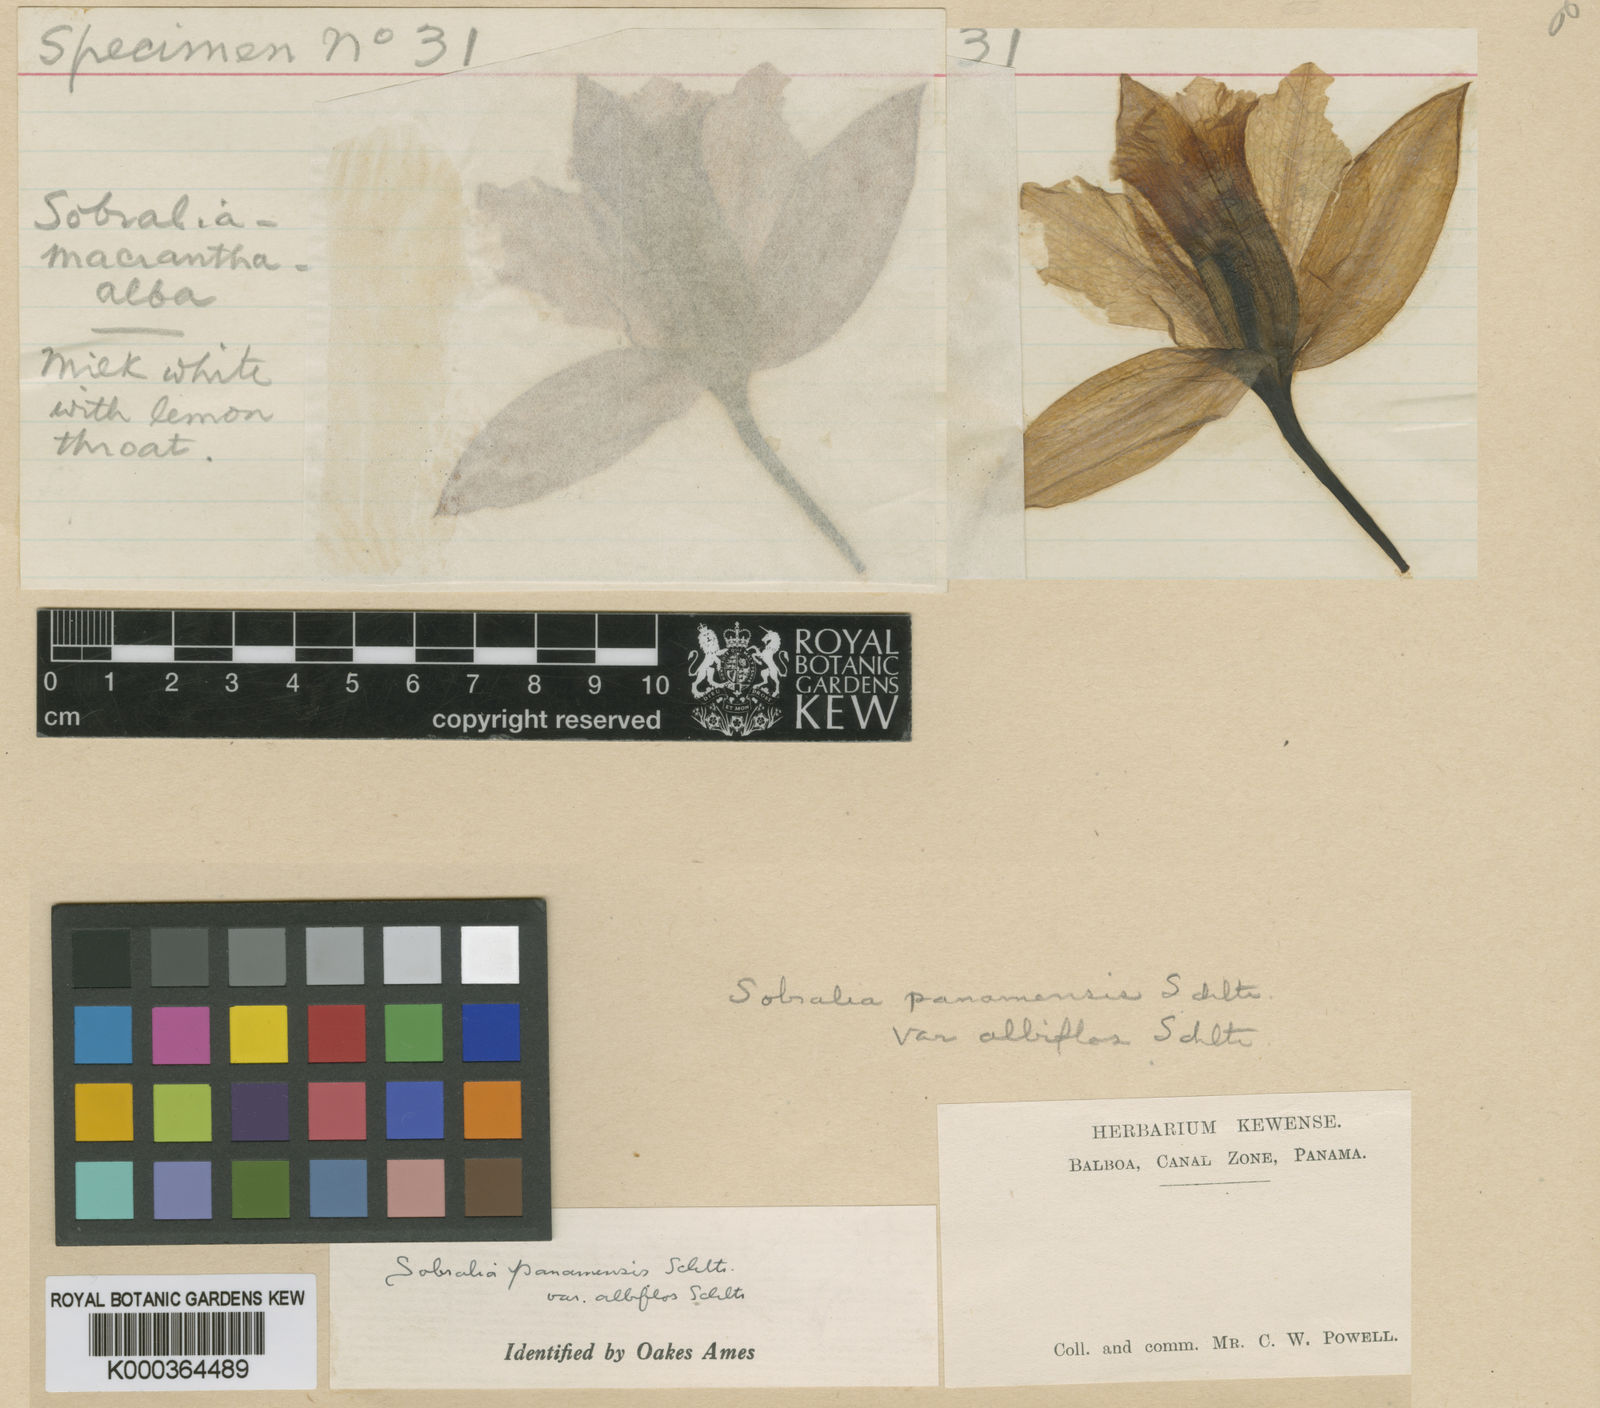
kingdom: Plantae
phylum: Tracheophyta
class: Liliopsida
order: Asparagales
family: Orchidaceae
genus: Sobralia
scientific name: Sobralia decora
